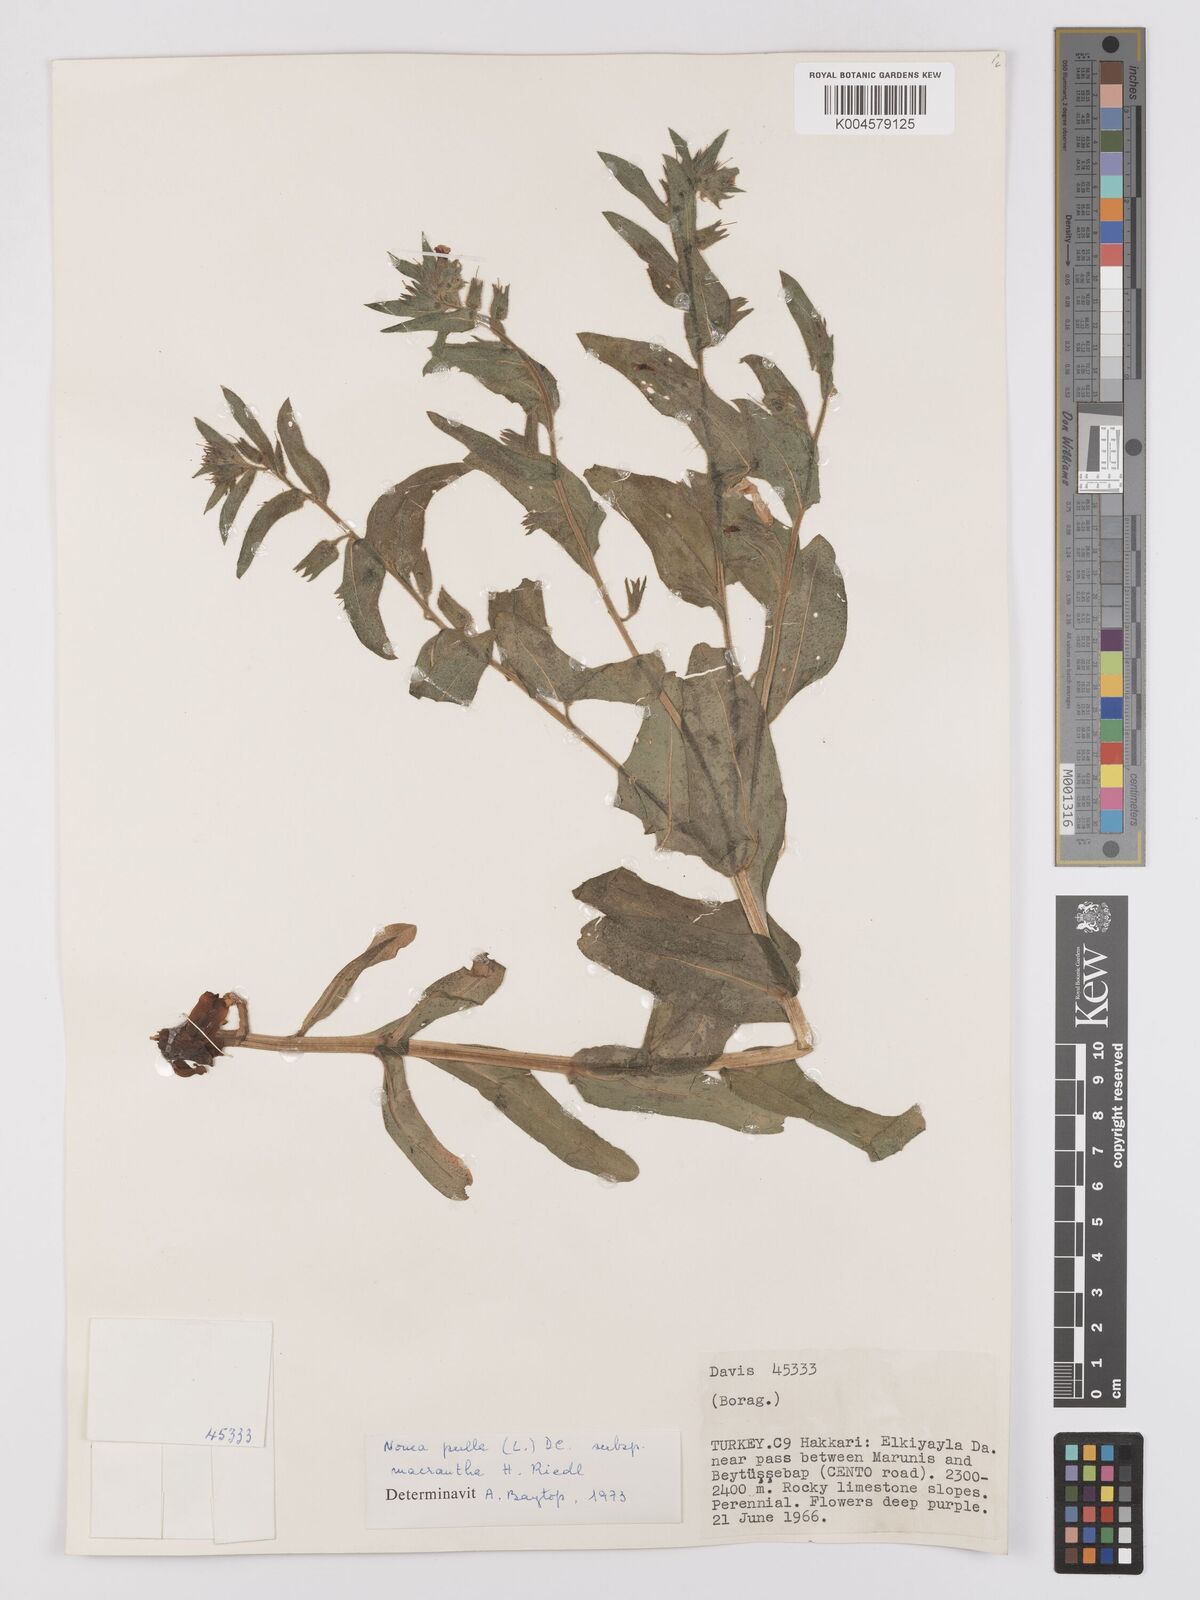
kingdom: Plantae
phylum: Tracheophyta
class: Magnoliopsida
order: Boraginales
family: Boraginaceae
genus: Nonea
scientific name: Nonea pulla
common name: Brown nonea
